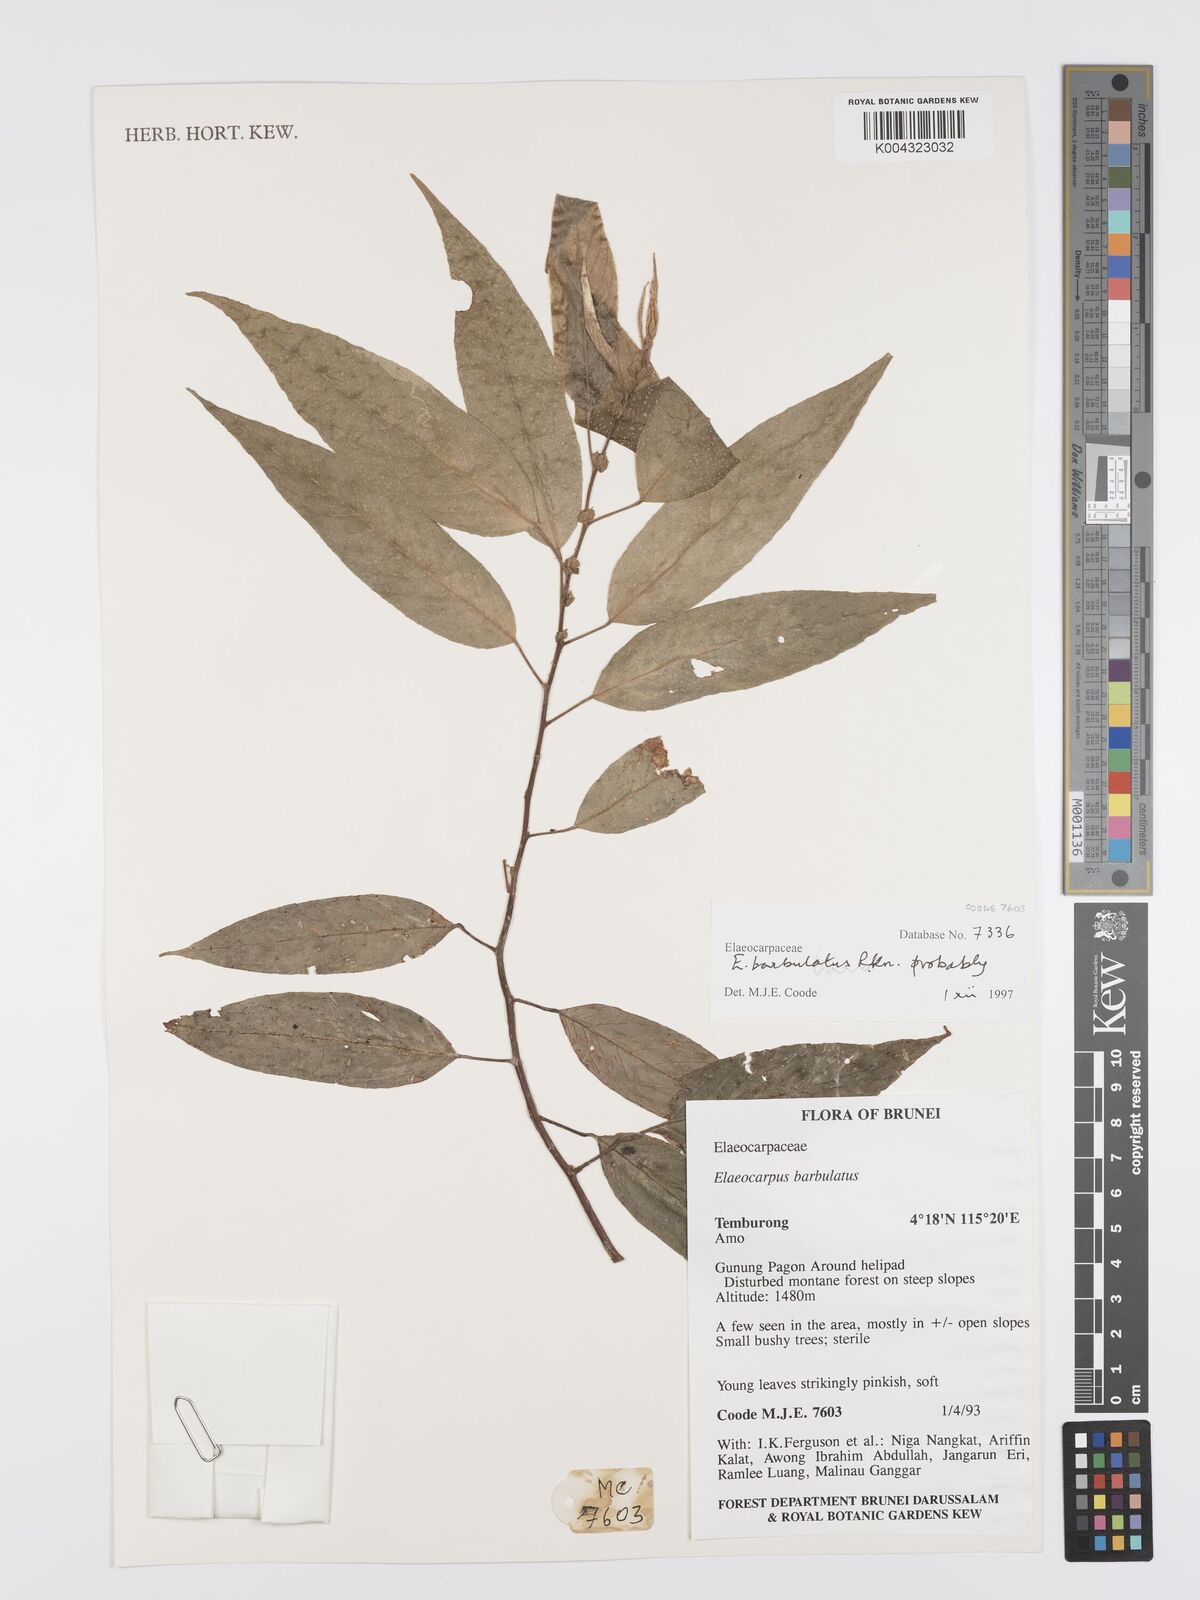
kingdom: Plantae
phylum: Tracheophyta
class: Magnoliopsida
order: Oxalidales
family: Elaeocarpaceae
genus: Elaeocarpus
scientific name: Elaeocarpus barbulatus
